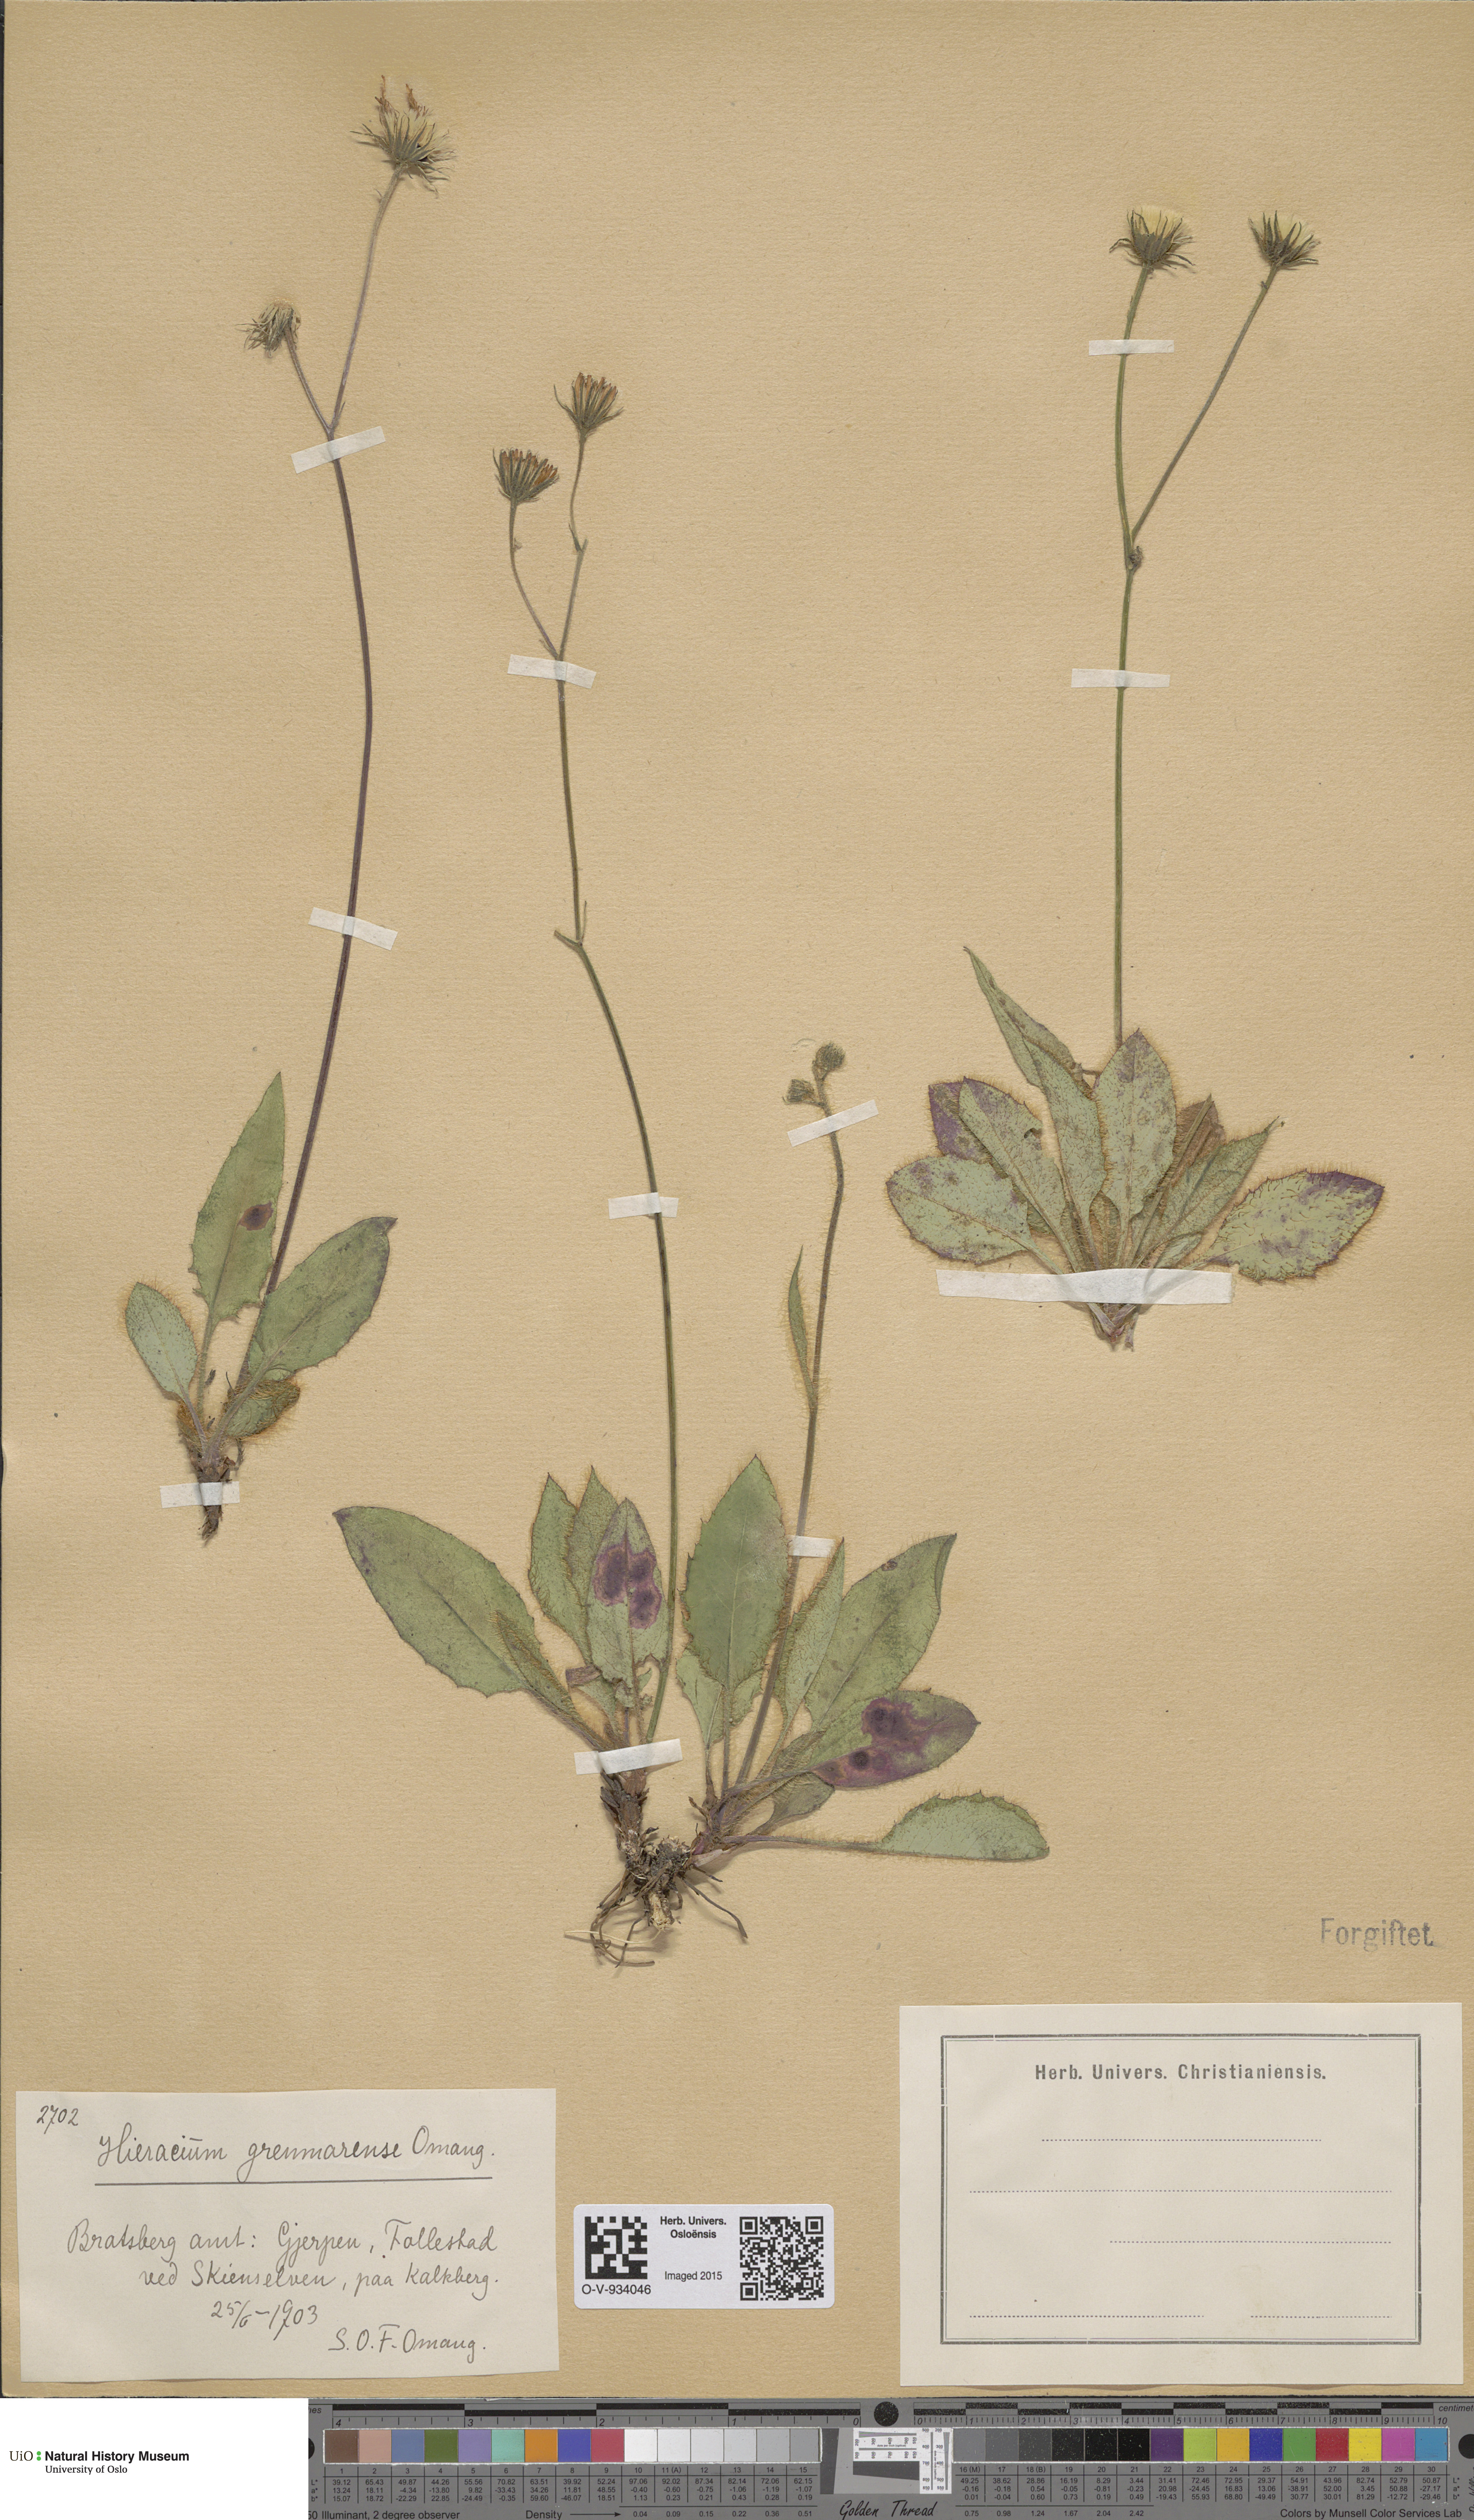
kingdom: Plantae
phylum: Tracheophyta
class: Magnoliopsida
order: Asterales
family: Asteraceae
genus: Hieracium
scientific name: Hieracium schmidtii
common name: Schmidt's hawkweed
